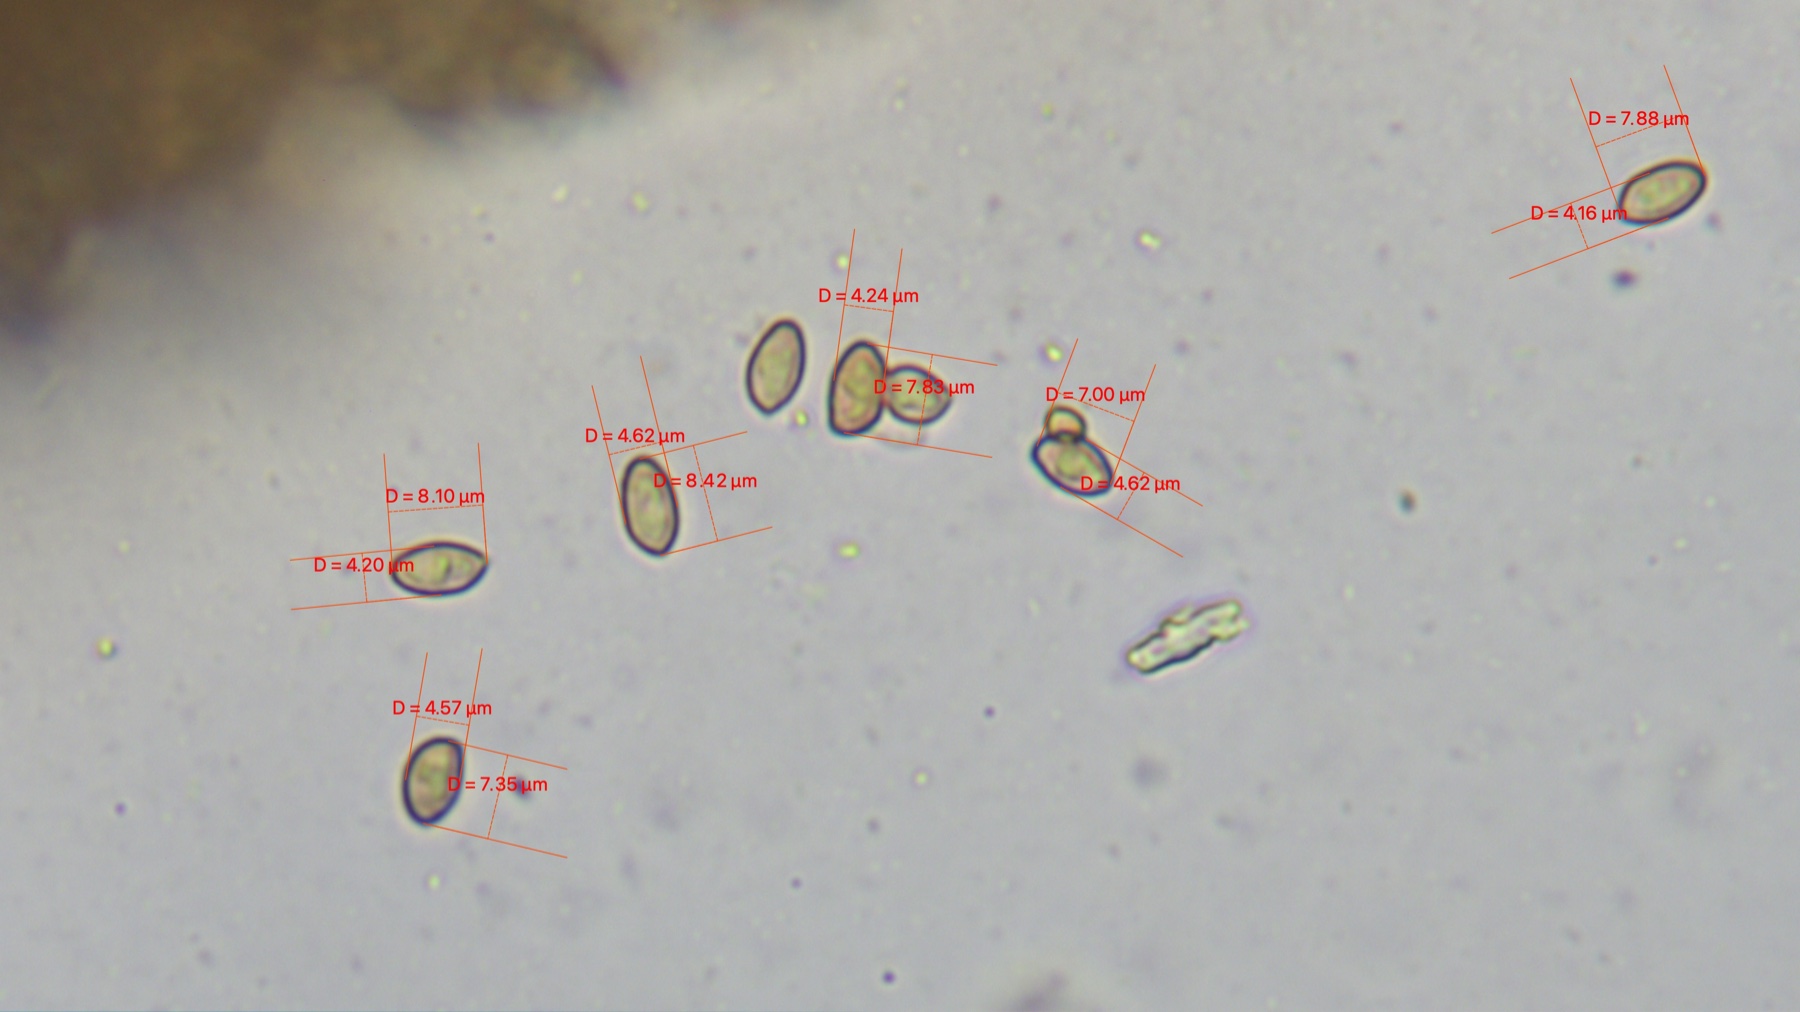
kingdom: Fungi
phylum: Basidiomycota
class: Agaricomycetes
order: Agaricales
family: Cortinariaceae
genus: Cortinarius
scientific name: Cortinarius
